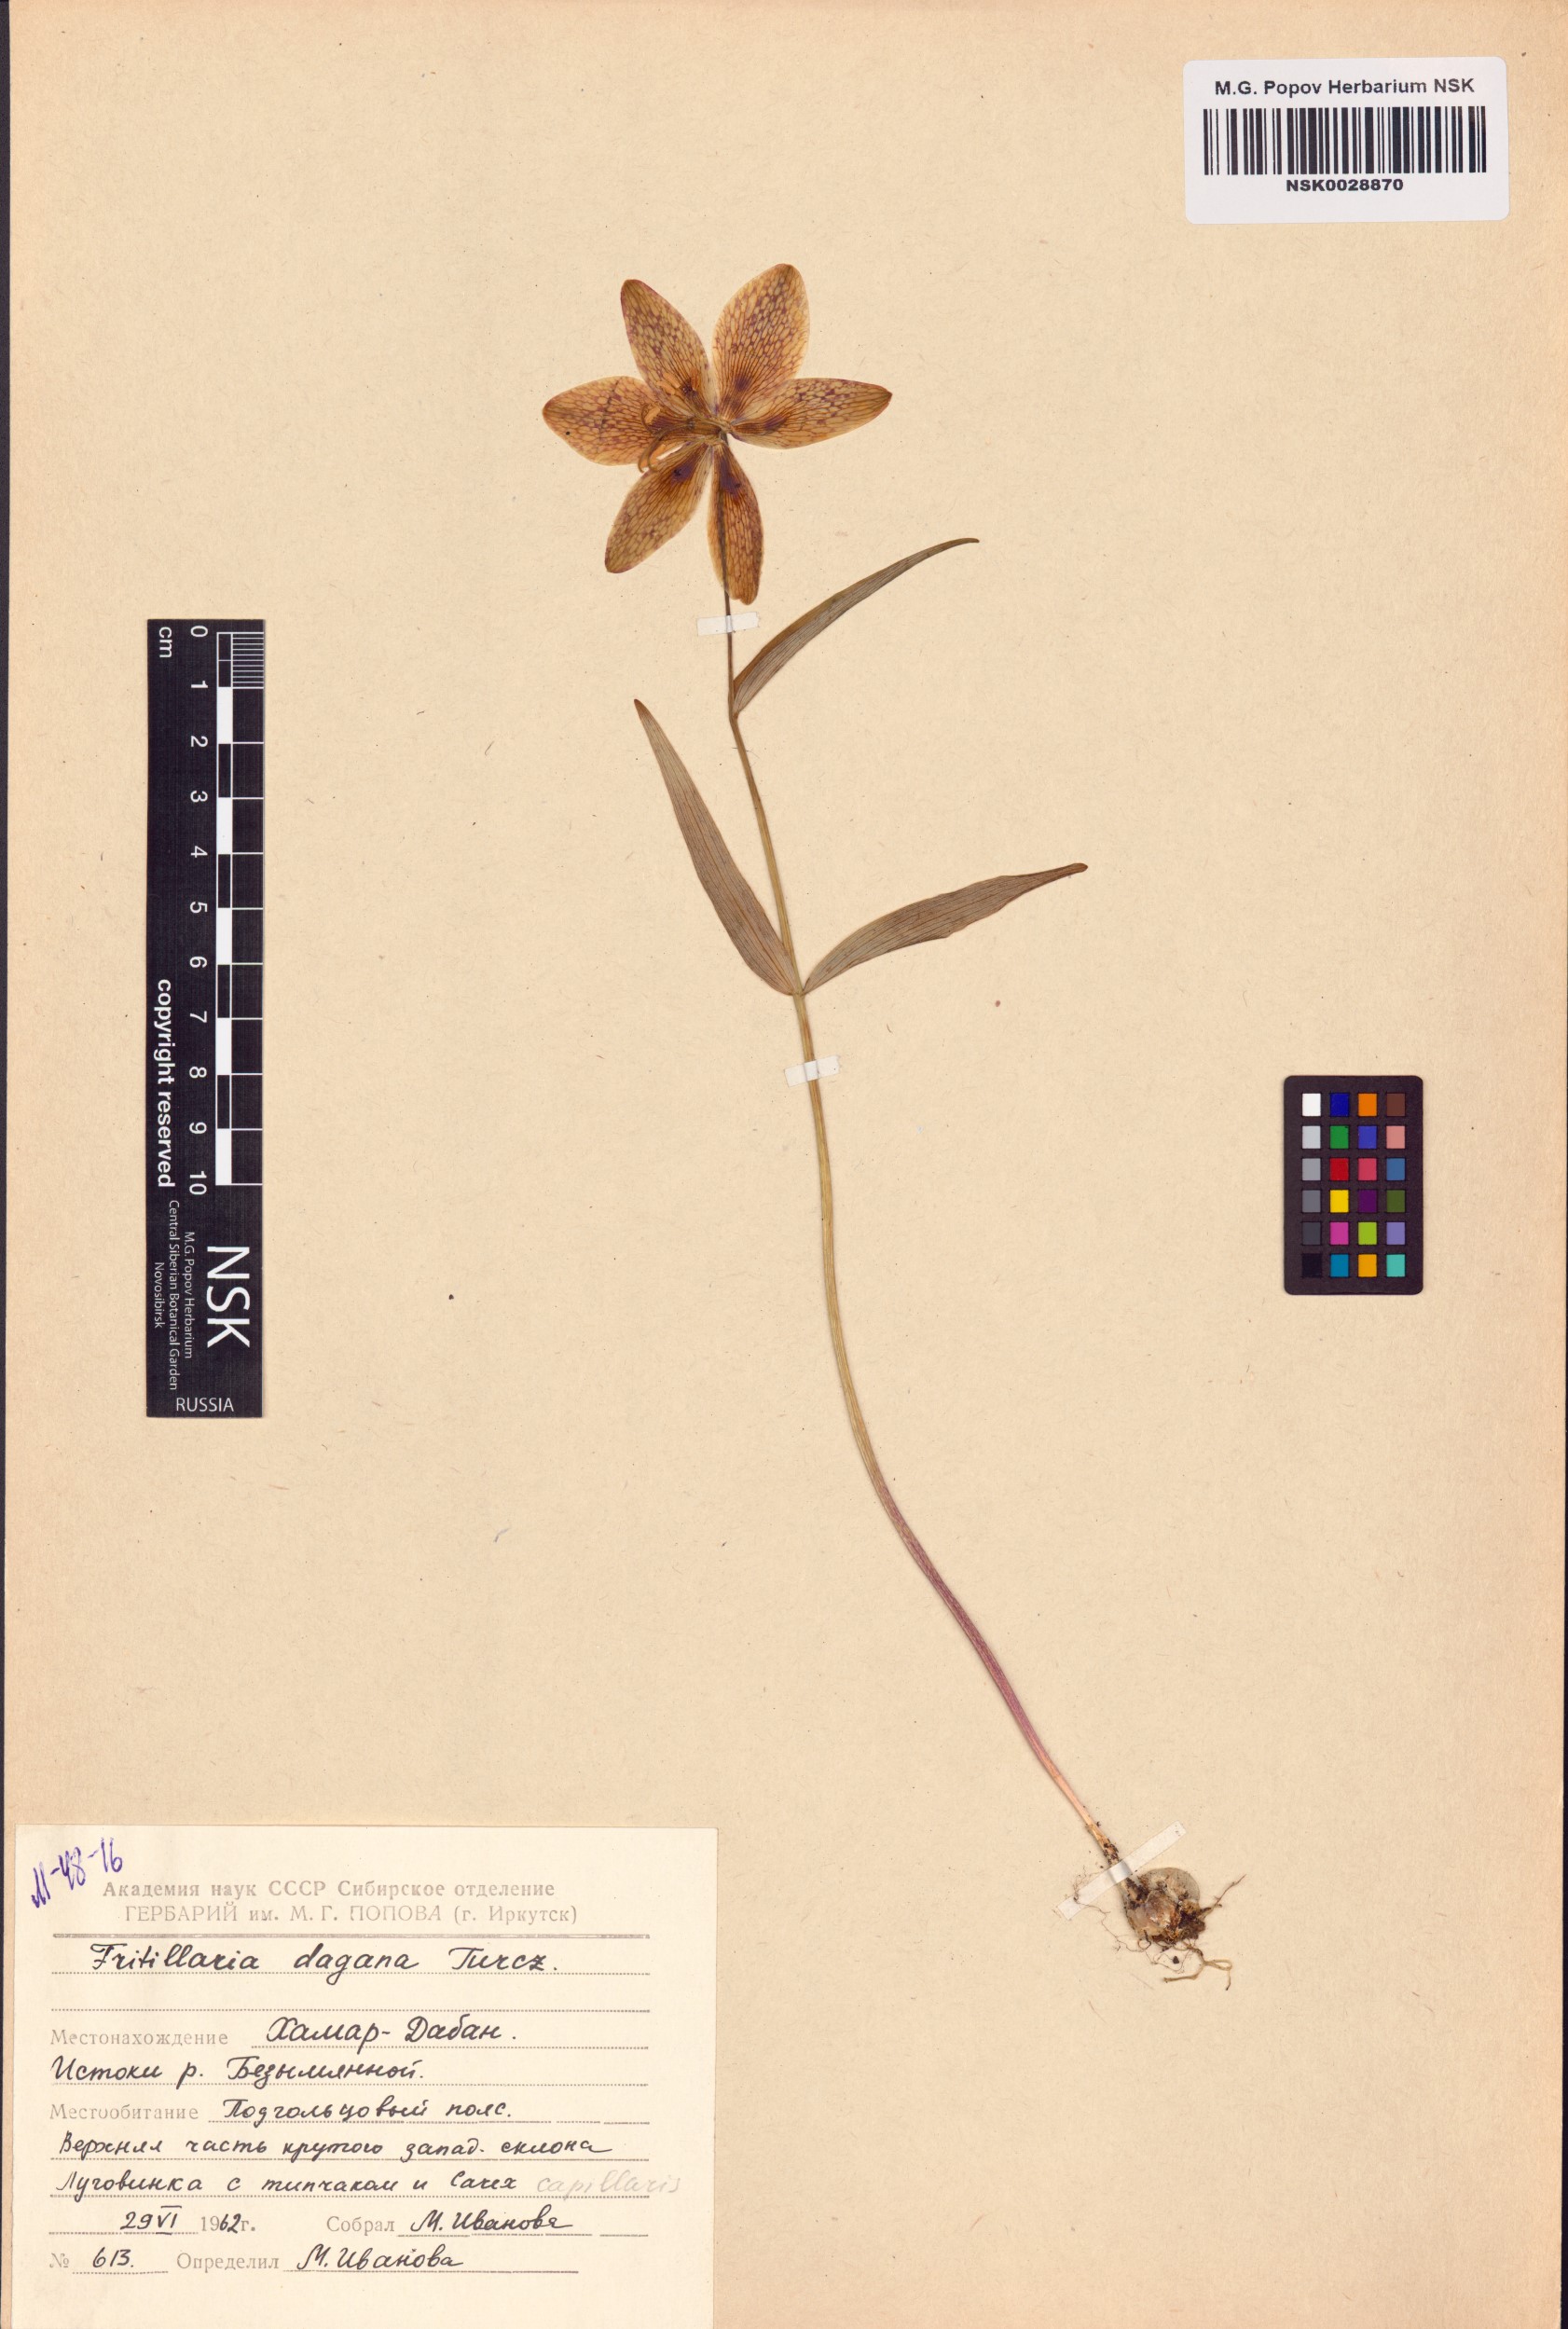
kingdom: Plantae
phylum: Tracheophyta
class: Liliopsida
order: Liliales
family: Liliaceae
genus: Fritillaria
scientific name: Fritillaria dagana
